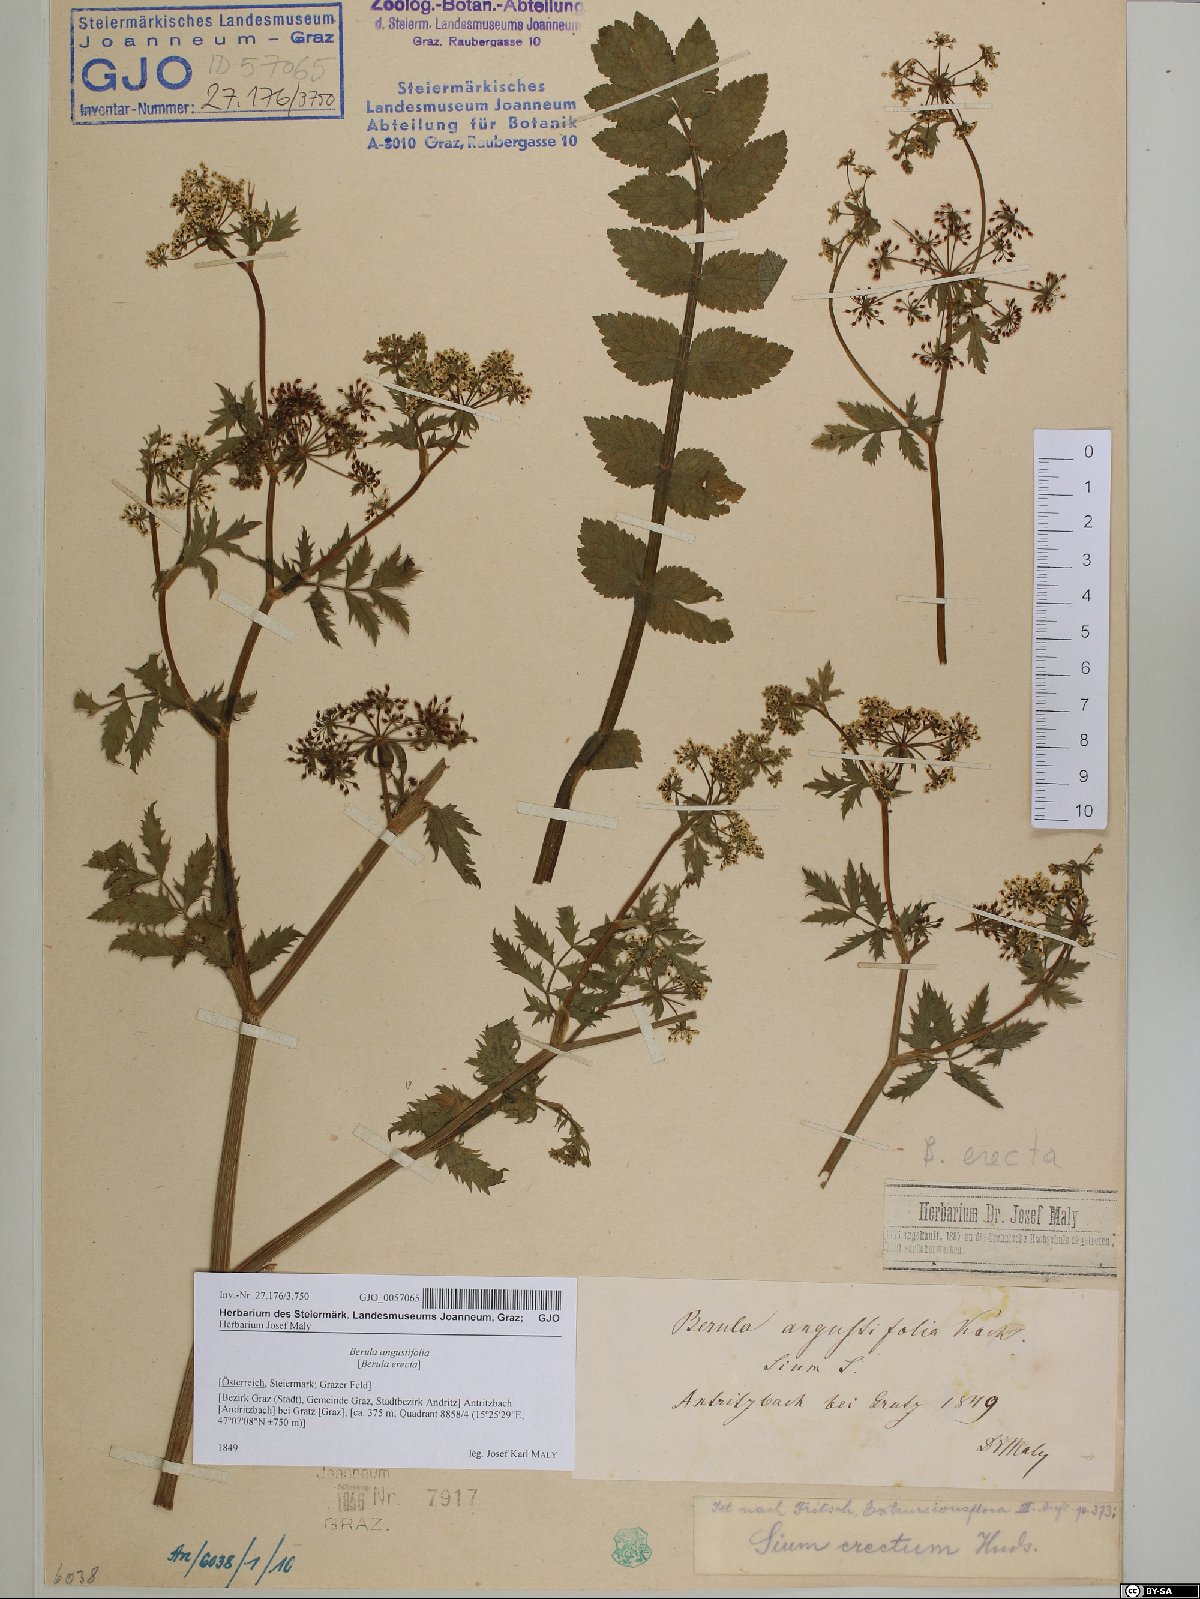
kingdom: Plantae
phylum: Tracheophyta
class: Magnoliopsida
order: Apiales
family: Apiaceae
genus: Berula
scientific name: Berula erecta
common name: Lesser water-parsnip
